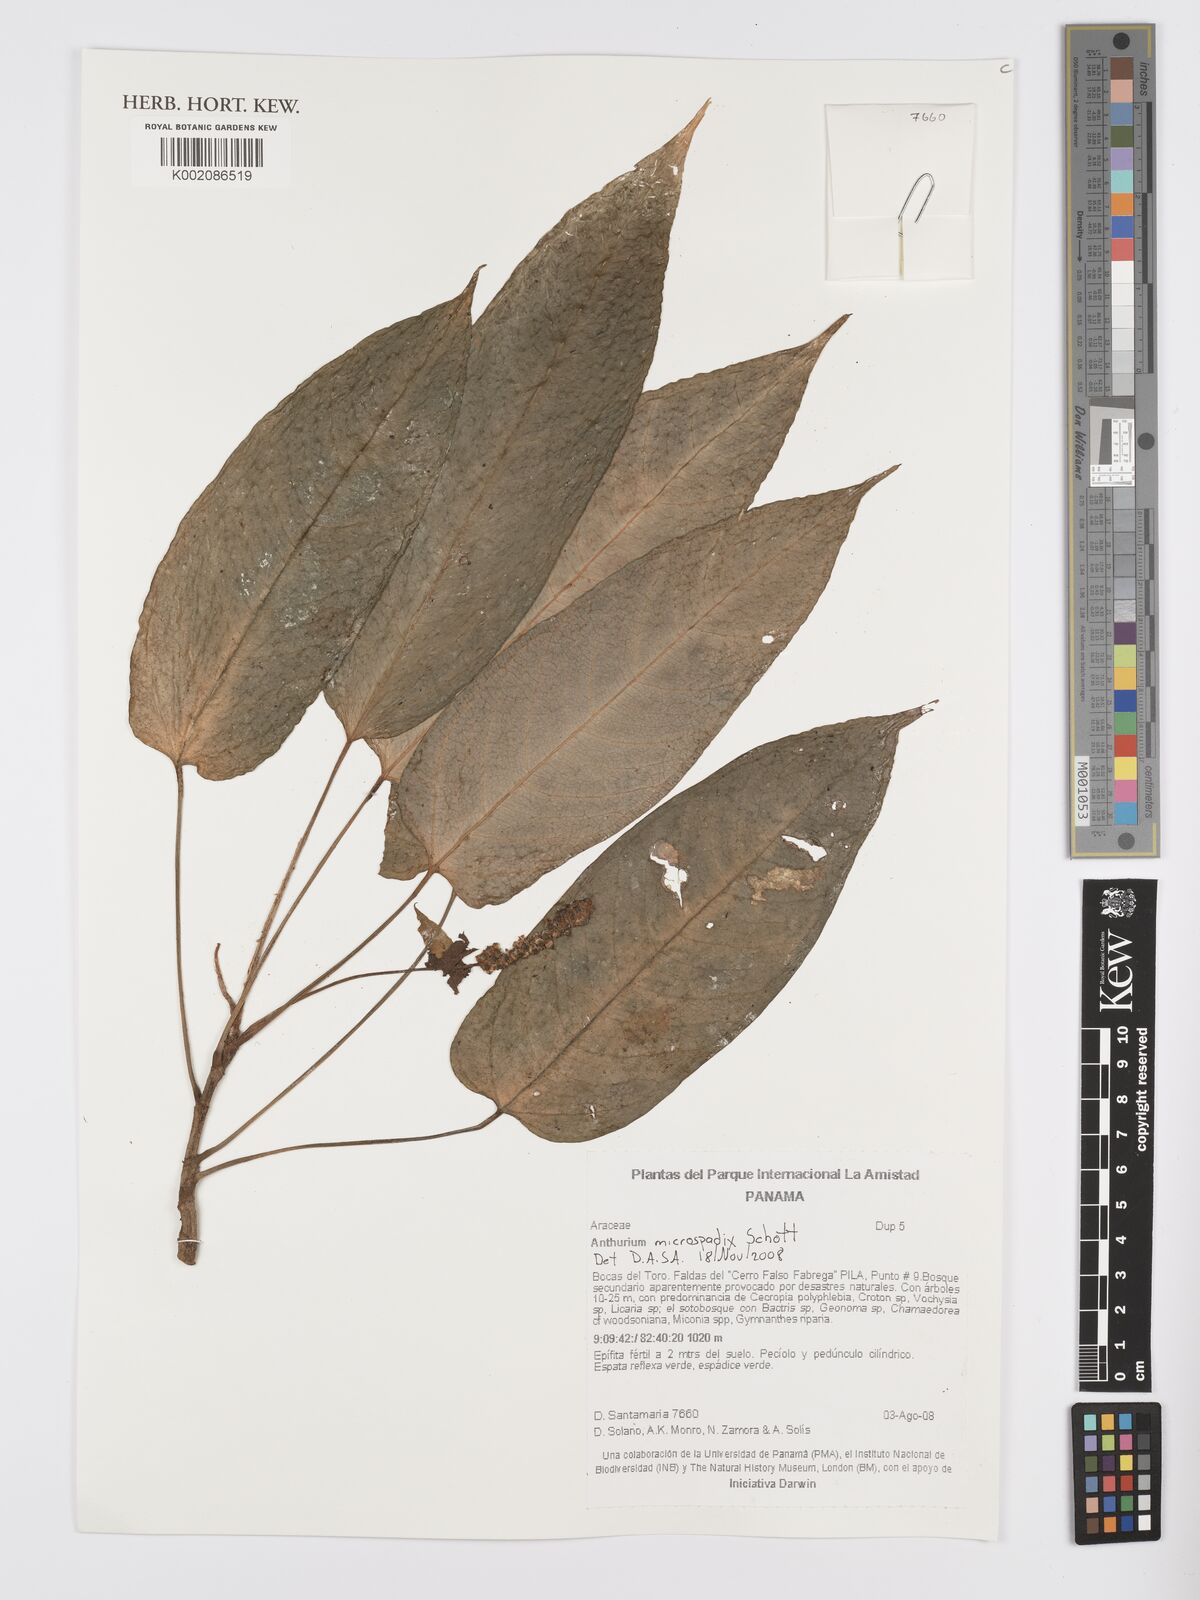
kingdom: Plantae
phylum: Tracheophyta
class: Liliopsida
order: Alismatales
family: Araceae
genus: Anthurium
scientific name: Anthurium microspadix
